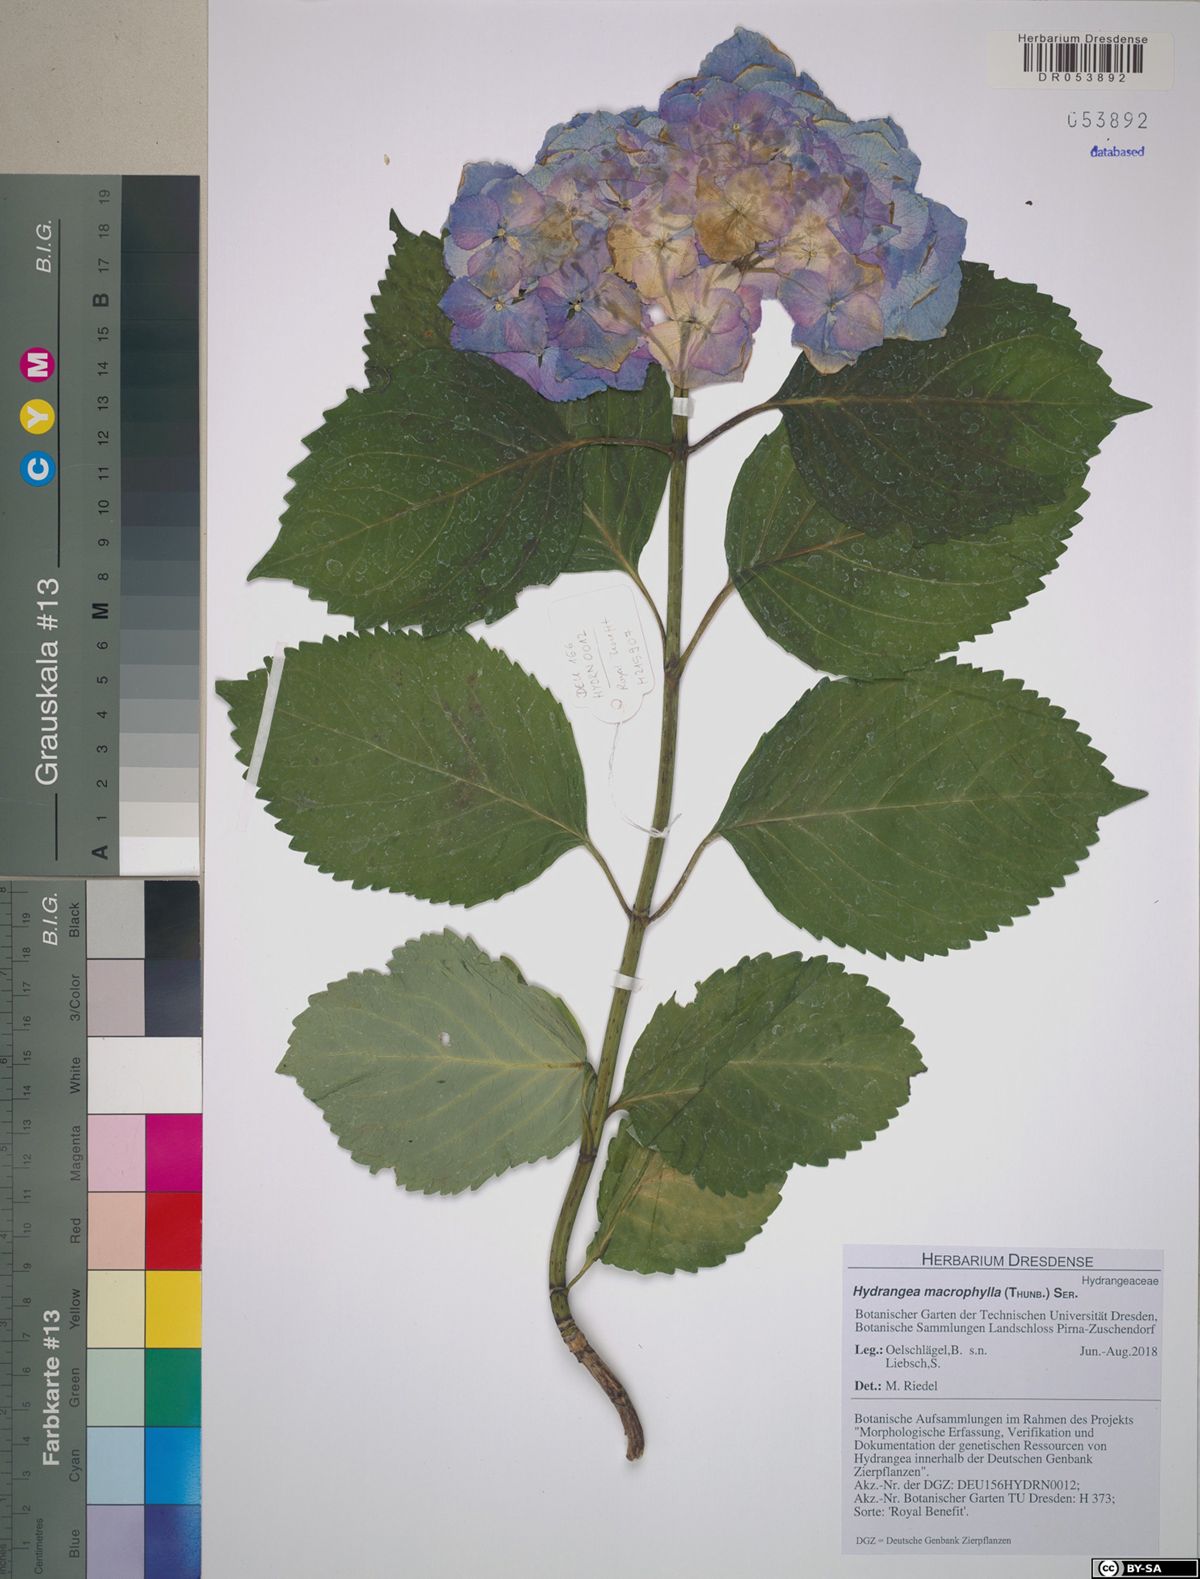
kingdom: Plantae
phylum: Tracheophyta
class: Magnoliopsida
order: Cornales
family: Hydrangeaceae
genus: Hydrangea
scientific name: Hydrangea macrophylla
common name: Hydrangea
